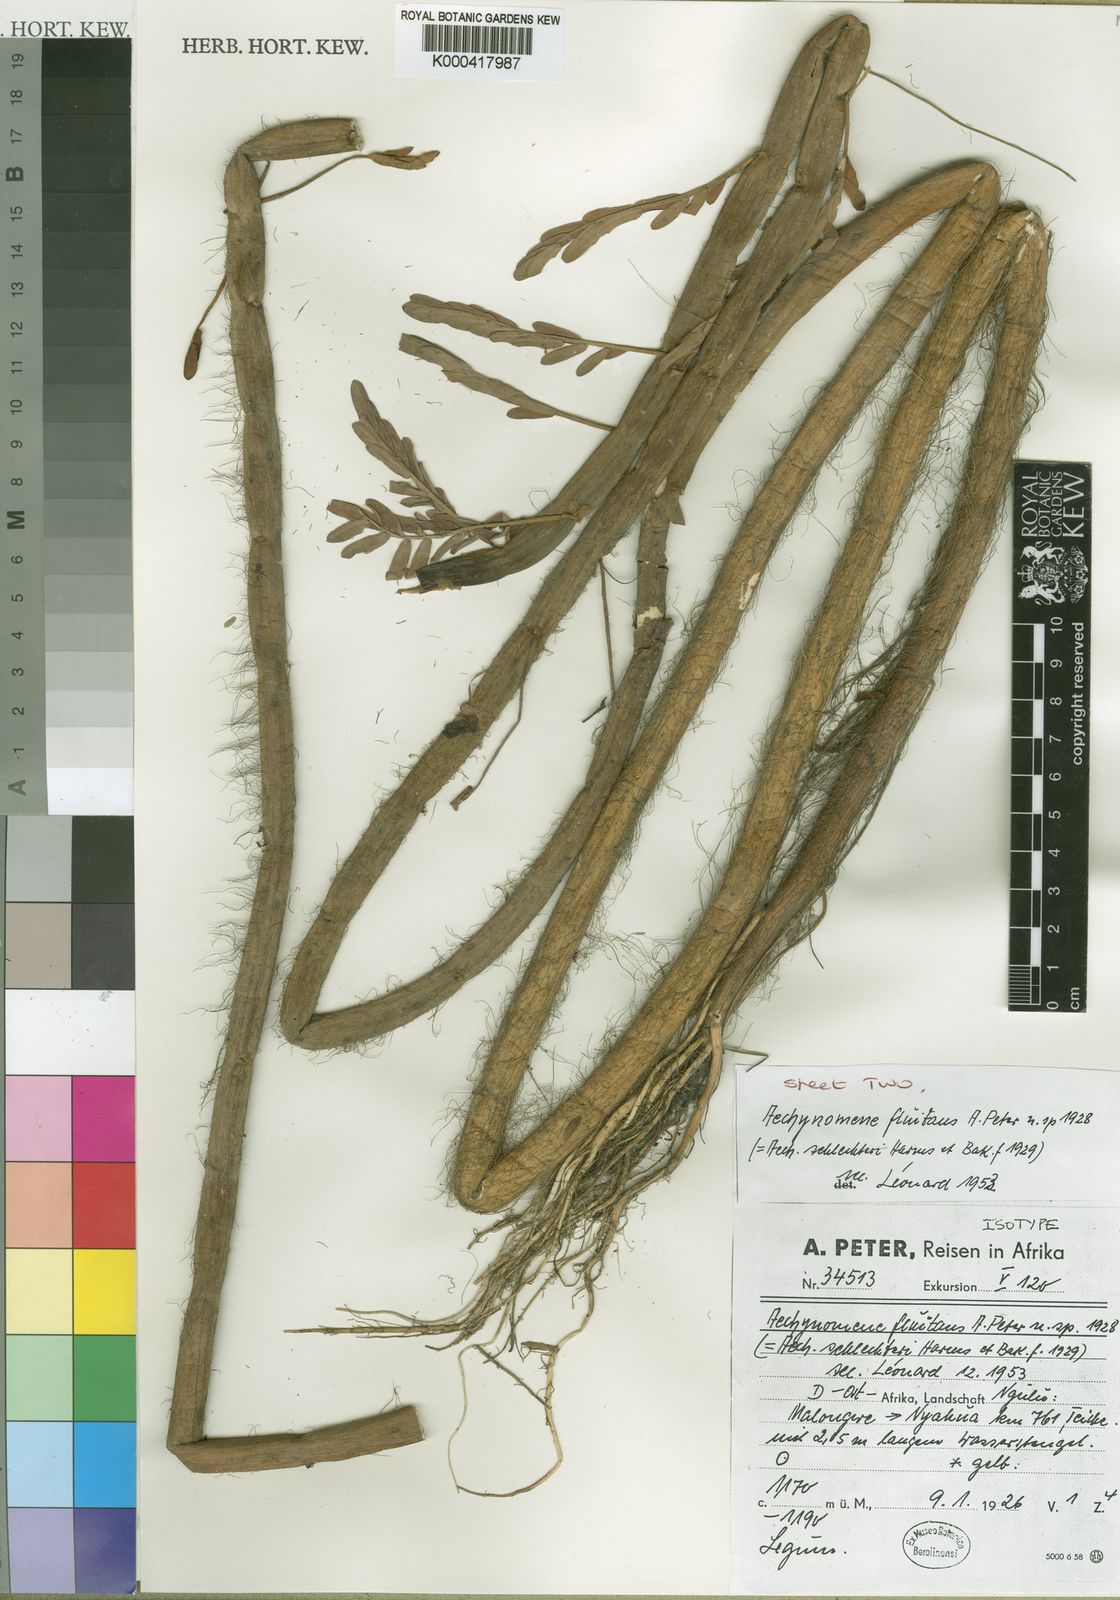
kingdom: Plantae
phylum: Tracheophyta
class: Magnoliopsida
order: Fabales
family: Fabaceae
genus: Aeschynomene
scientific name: Aeschynomene fluitans
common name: Giant water sensitive plant
